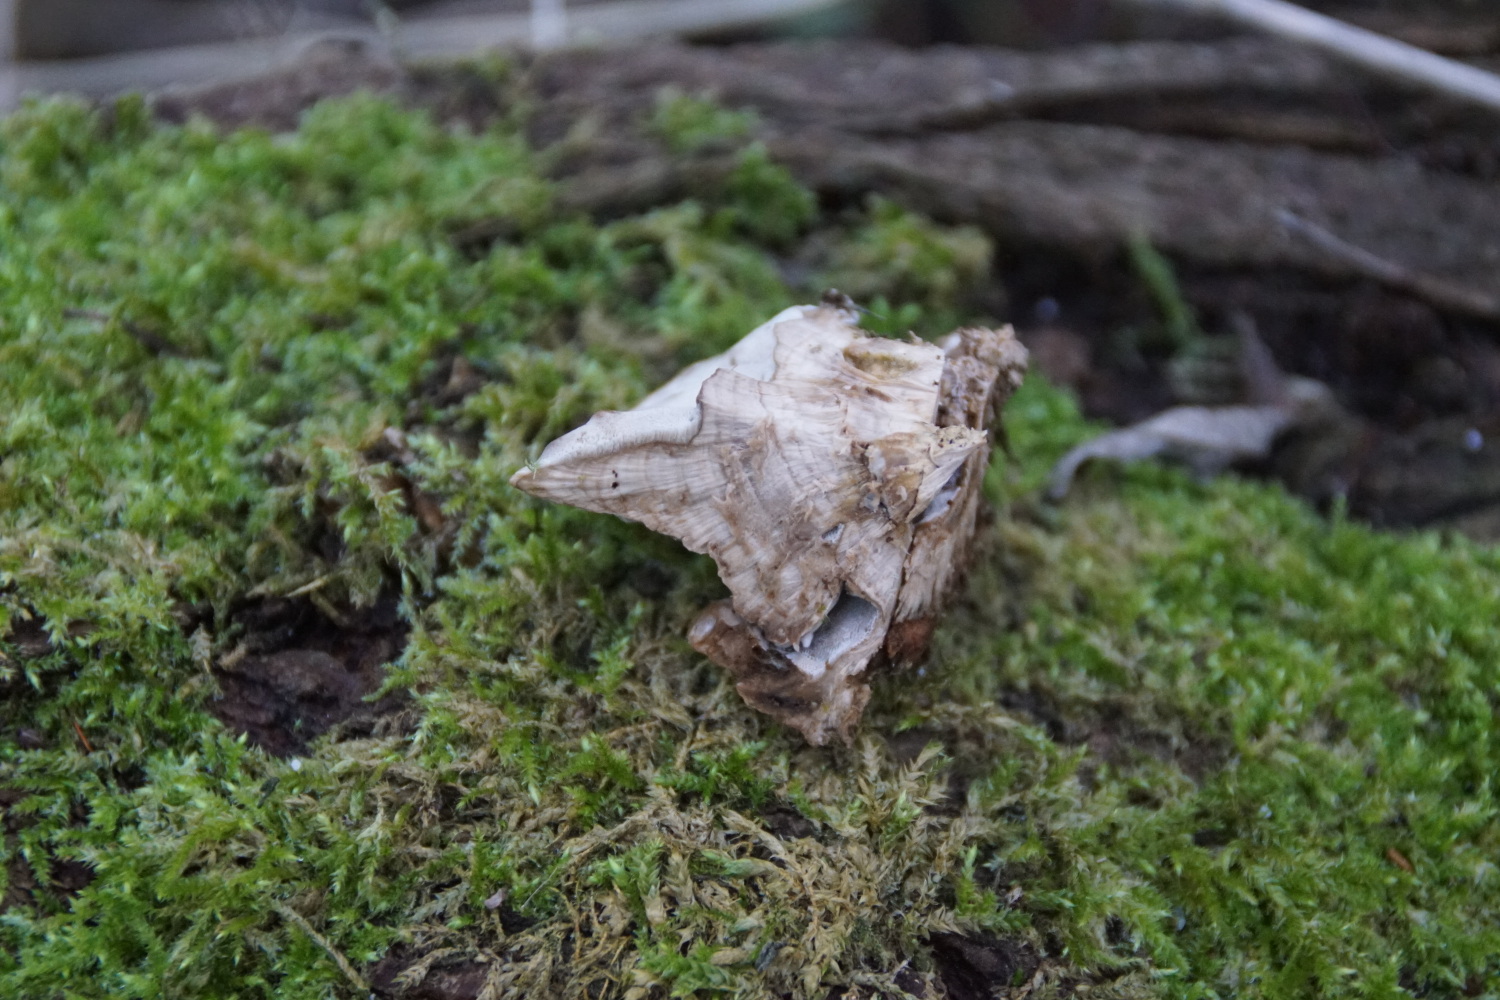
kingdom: Fungi
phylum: Basidiomycota
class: Agaricomycetes
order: Polyporales
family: Phanerochaetaceae
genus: Bjerkandera
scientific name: Bjerkandera fumosa
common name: grågul sodporesvamp
